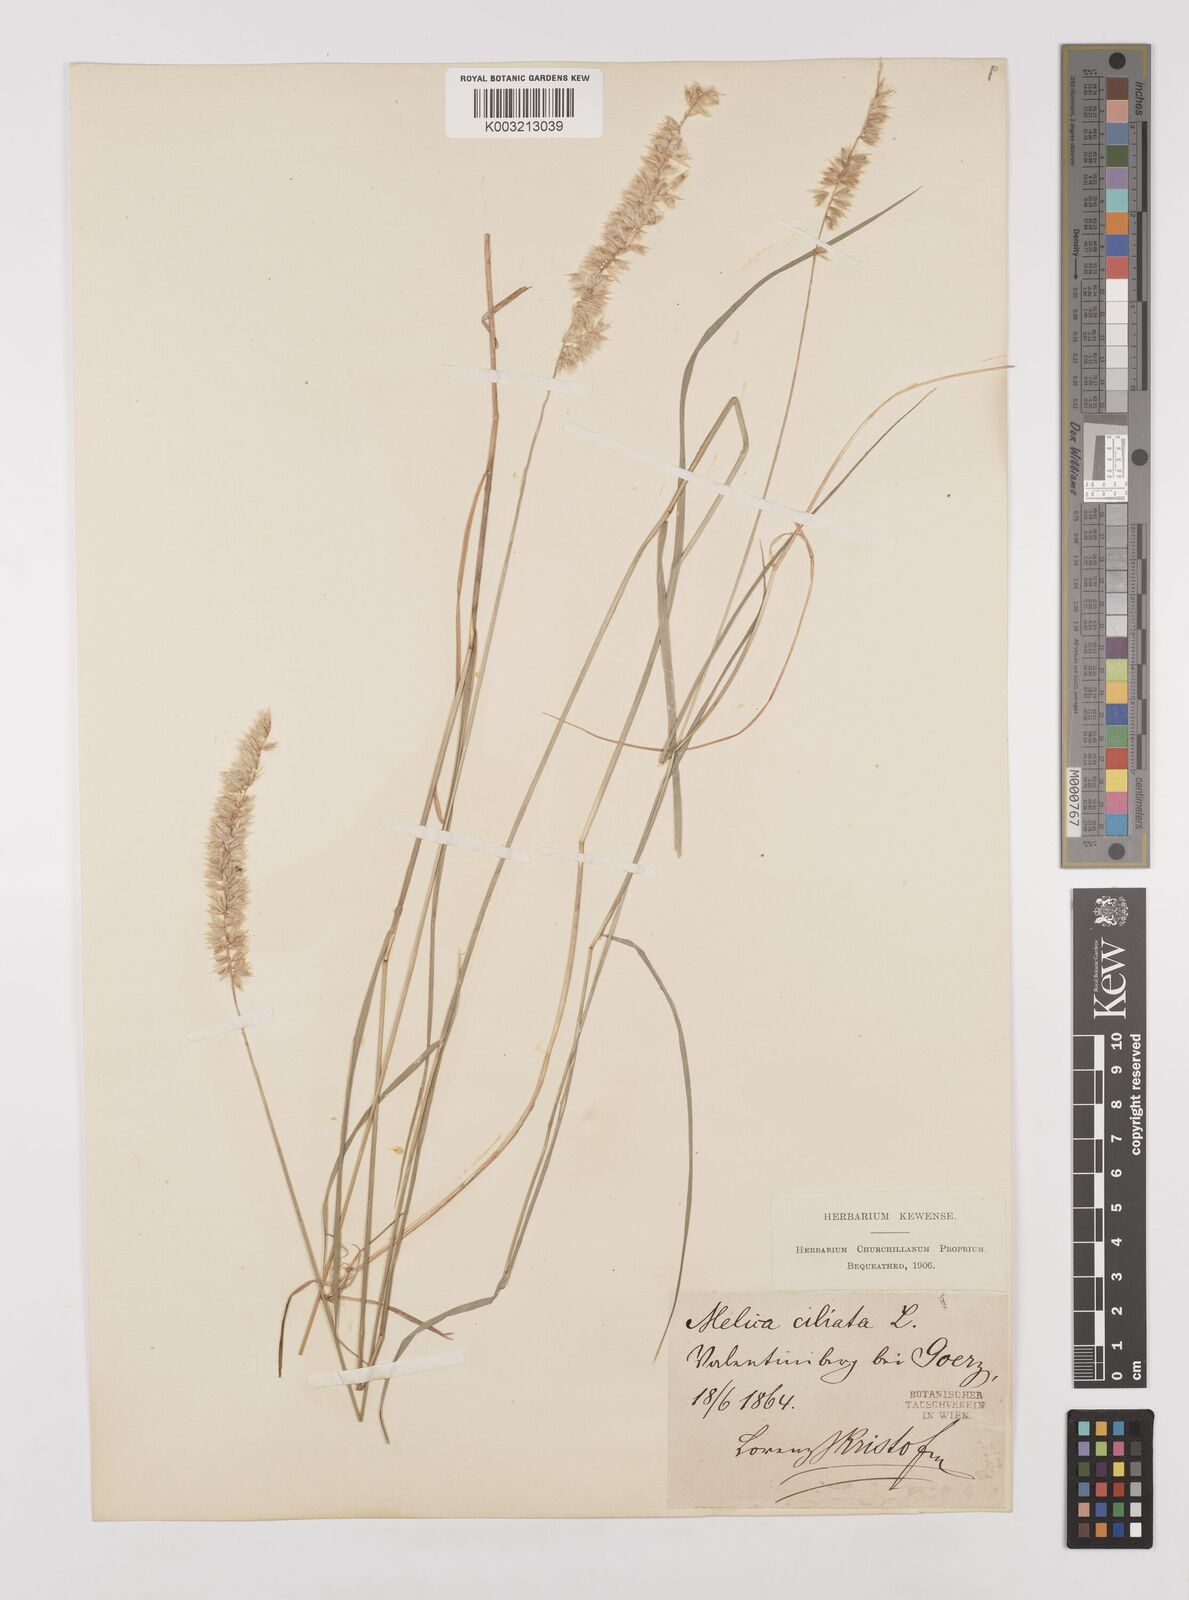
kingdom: Plantae
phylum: Tracheophyta
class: Liliopsida
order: Poales
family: Poaceae
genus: Melica
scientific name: Melica ciliata
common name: Hairy melicgrass
